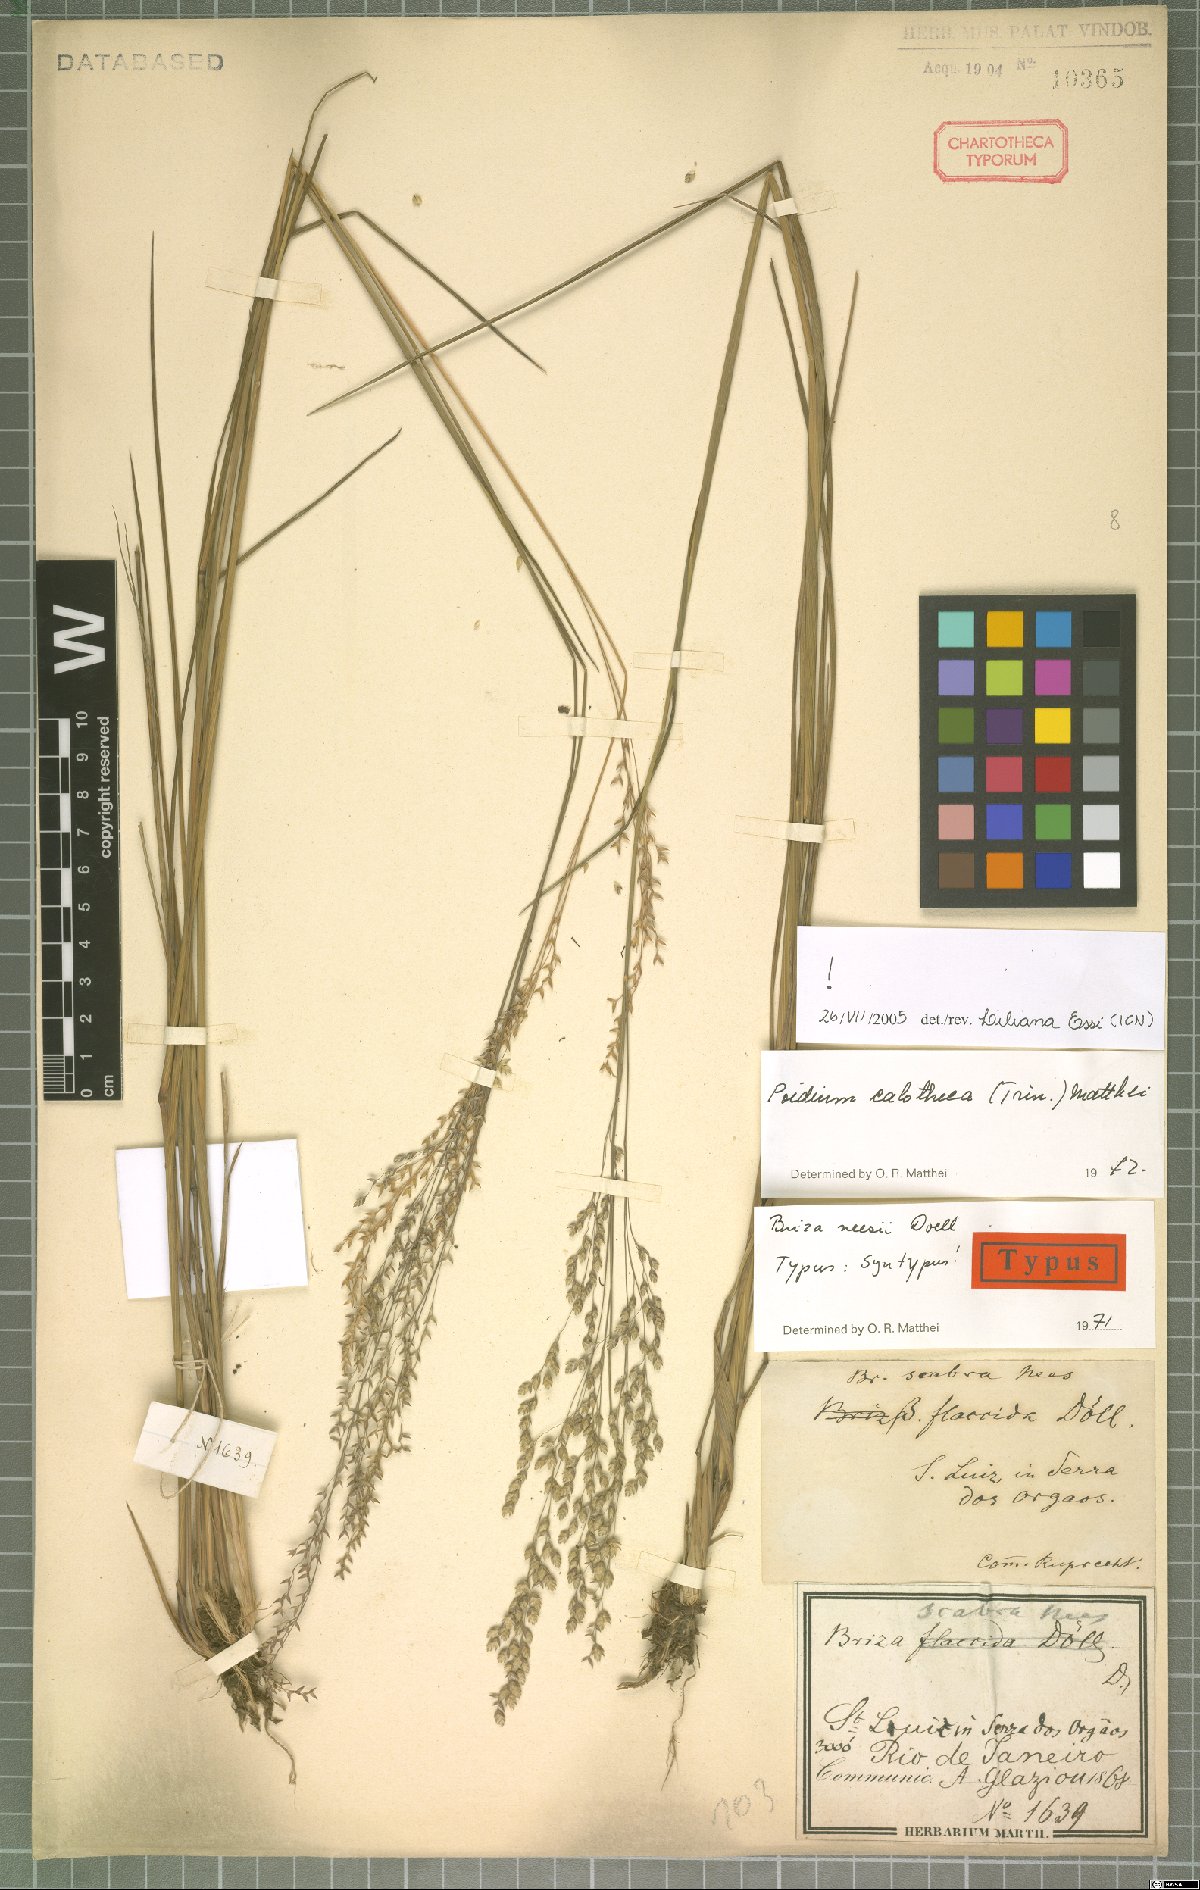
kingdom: Plantae
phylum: Tracheophyta
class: Liliopsida
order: Poales
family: Poaceae
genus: Poidium
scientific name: Poidium calotheca
